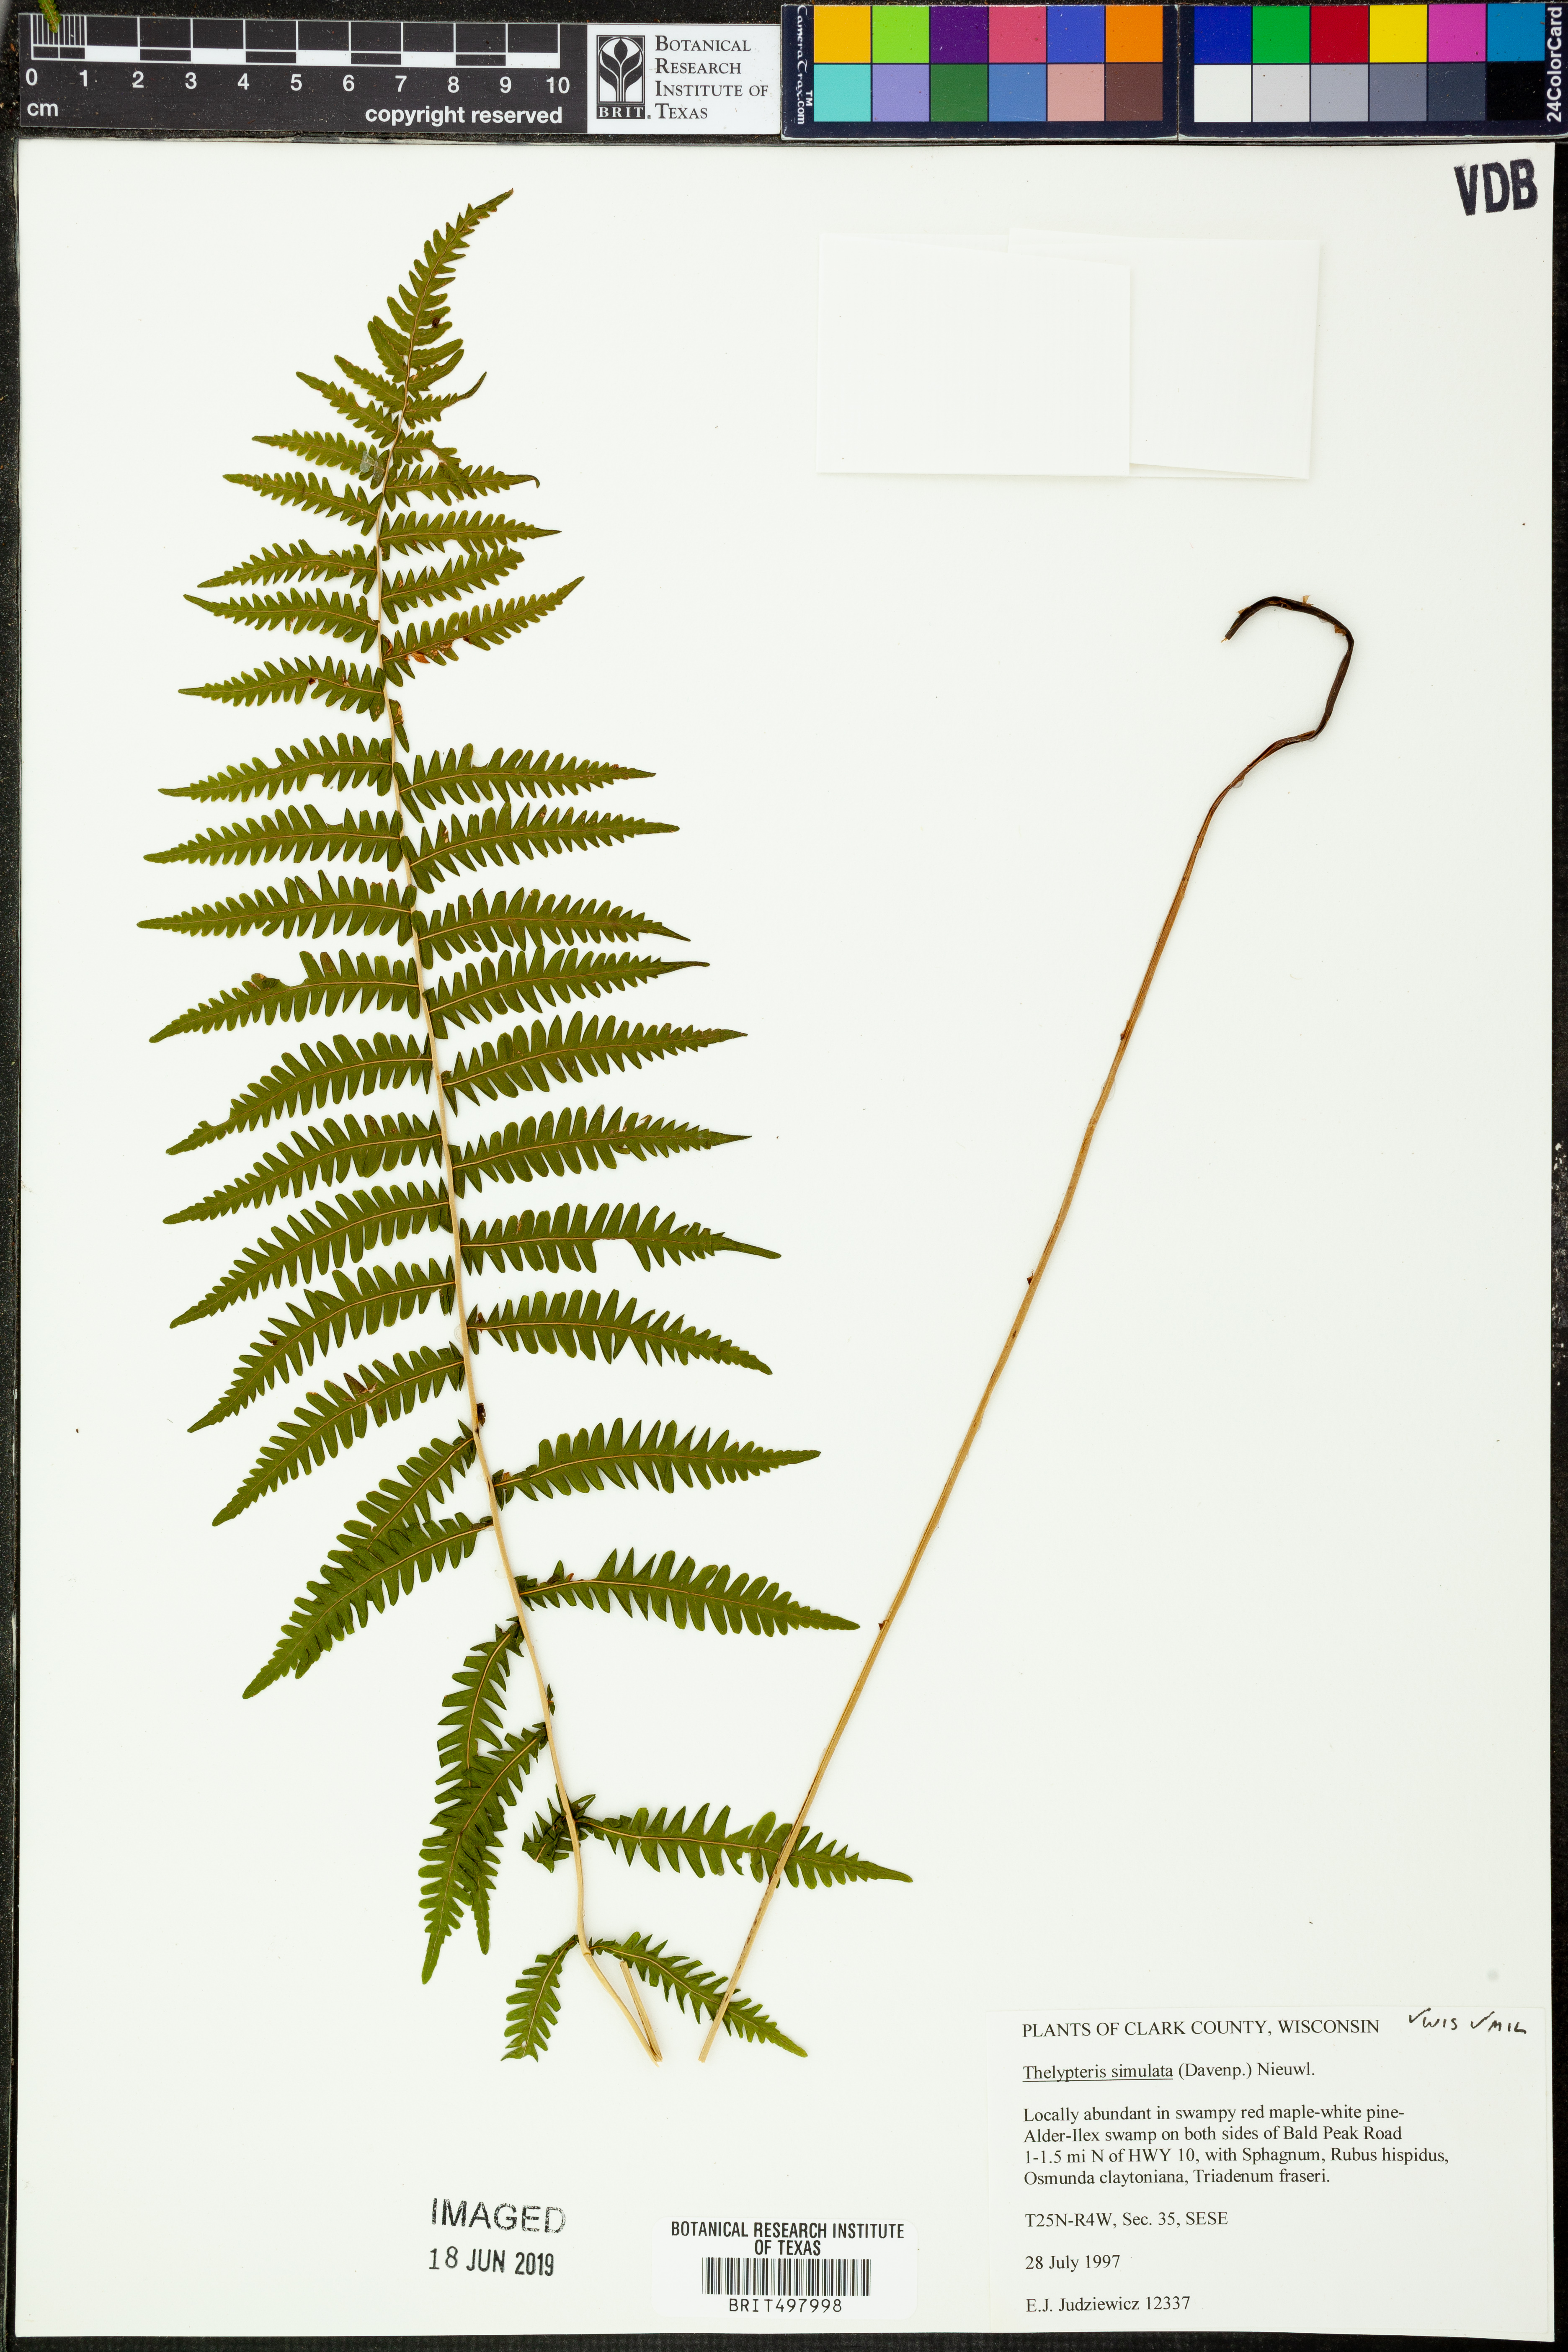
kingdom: Plantae
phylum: Tracheophyta
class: Polypodiopsida
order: Polypodiales
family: Thelypteridaceae
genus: Coryphopteris
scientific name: Coryphopteris simulata
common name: Bog fern
